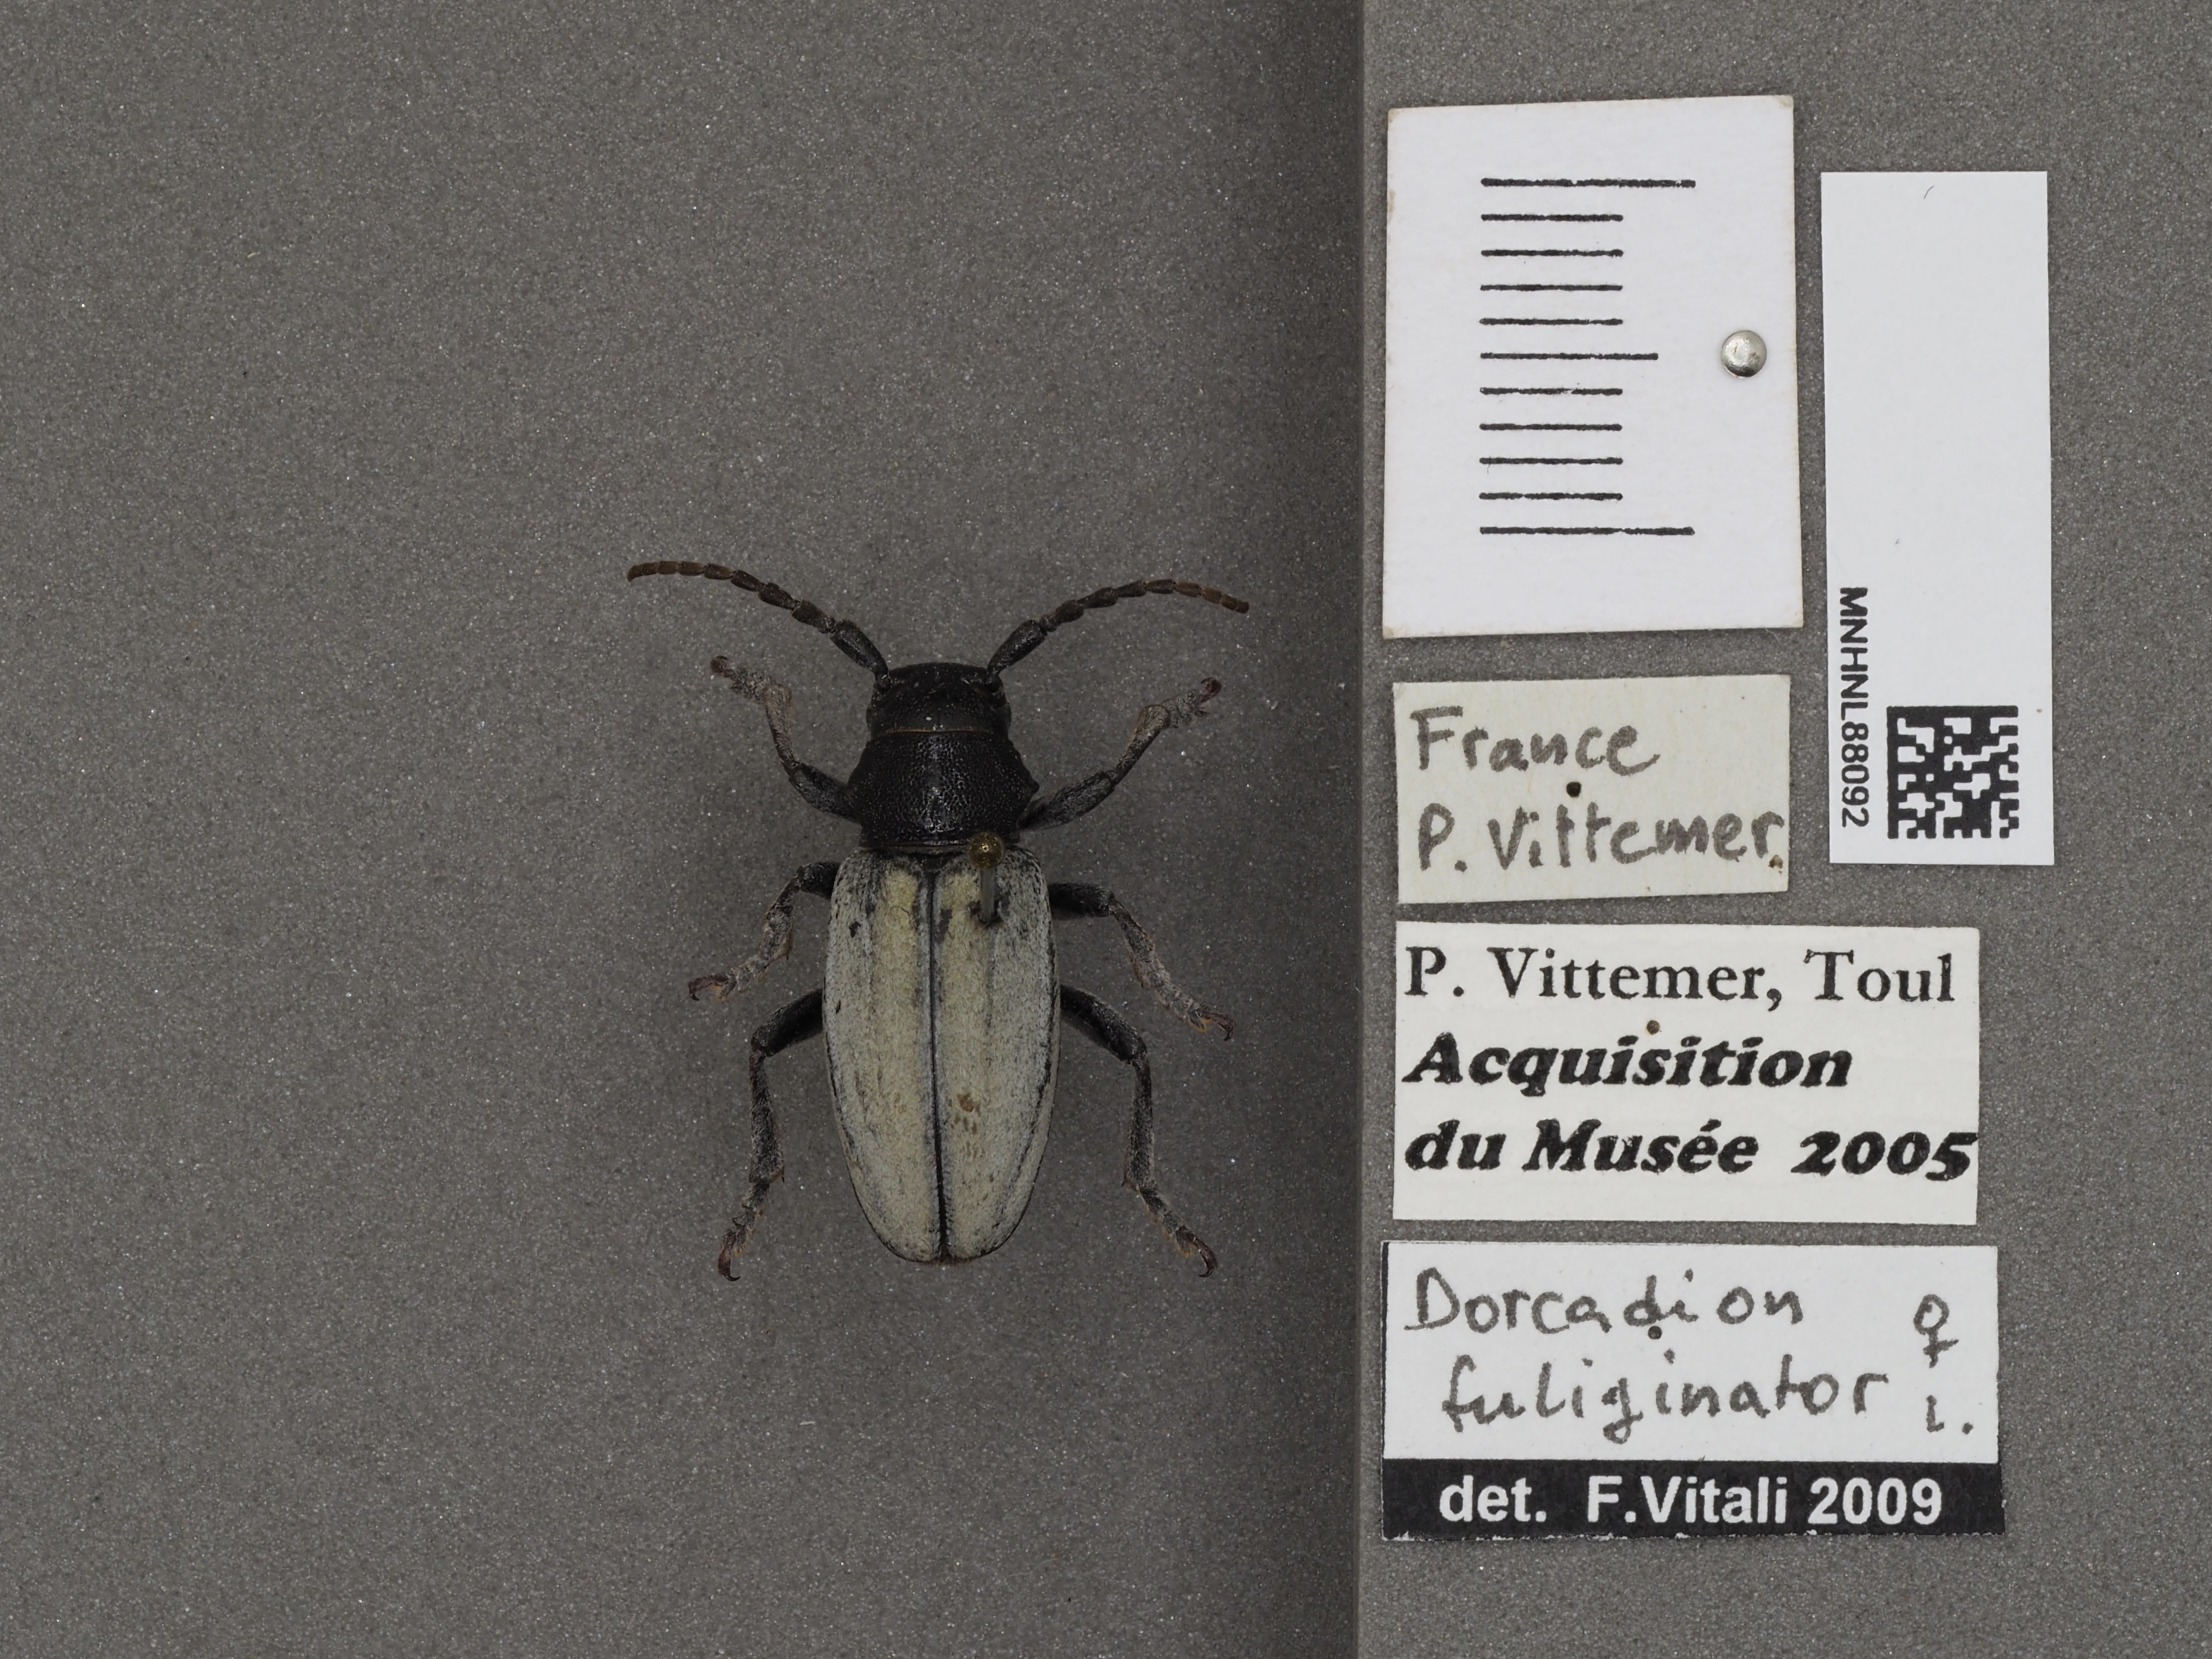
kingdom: Animalia
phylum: Arthropoda
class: Insecta
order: Coleoptera
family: Cerambycidae
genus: Iberodorcadion
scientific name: Iberodorcadion fuliginator
